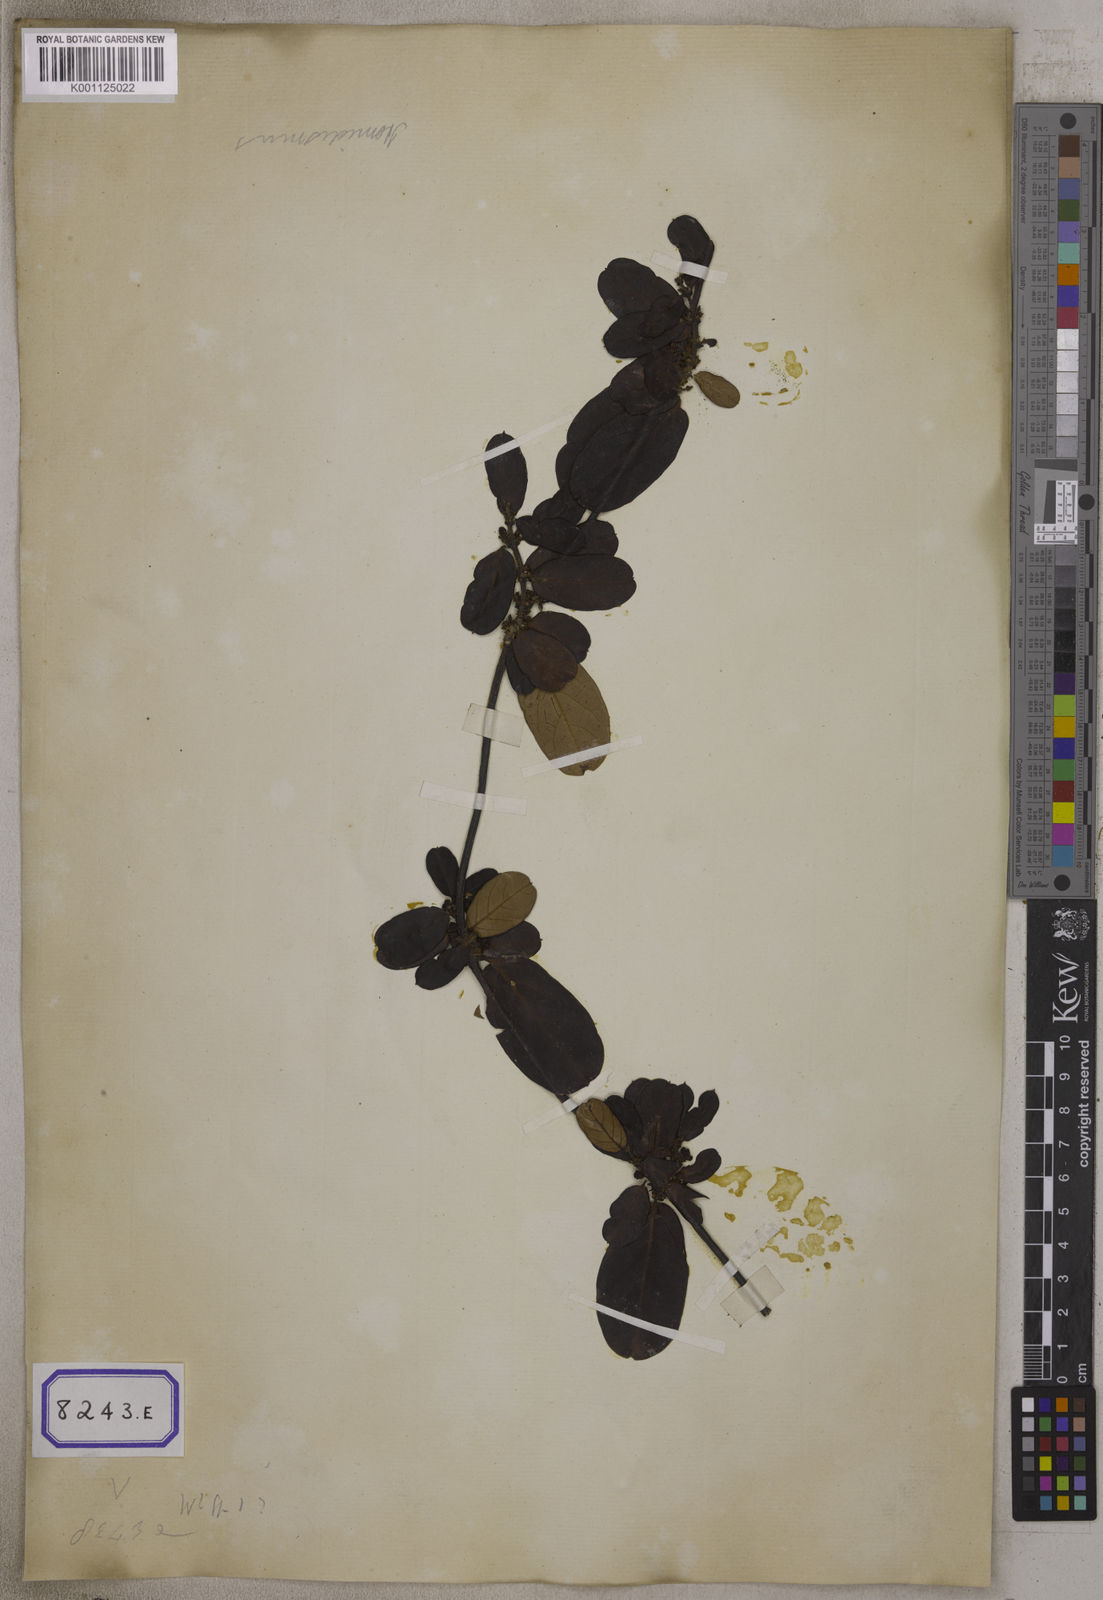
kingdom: Plantae
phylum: Tracheophyta
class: Magnoliopsida
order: Gentianales
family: Apocynaceae
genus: Hemidesmus
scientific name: Hemidesmus indicus
